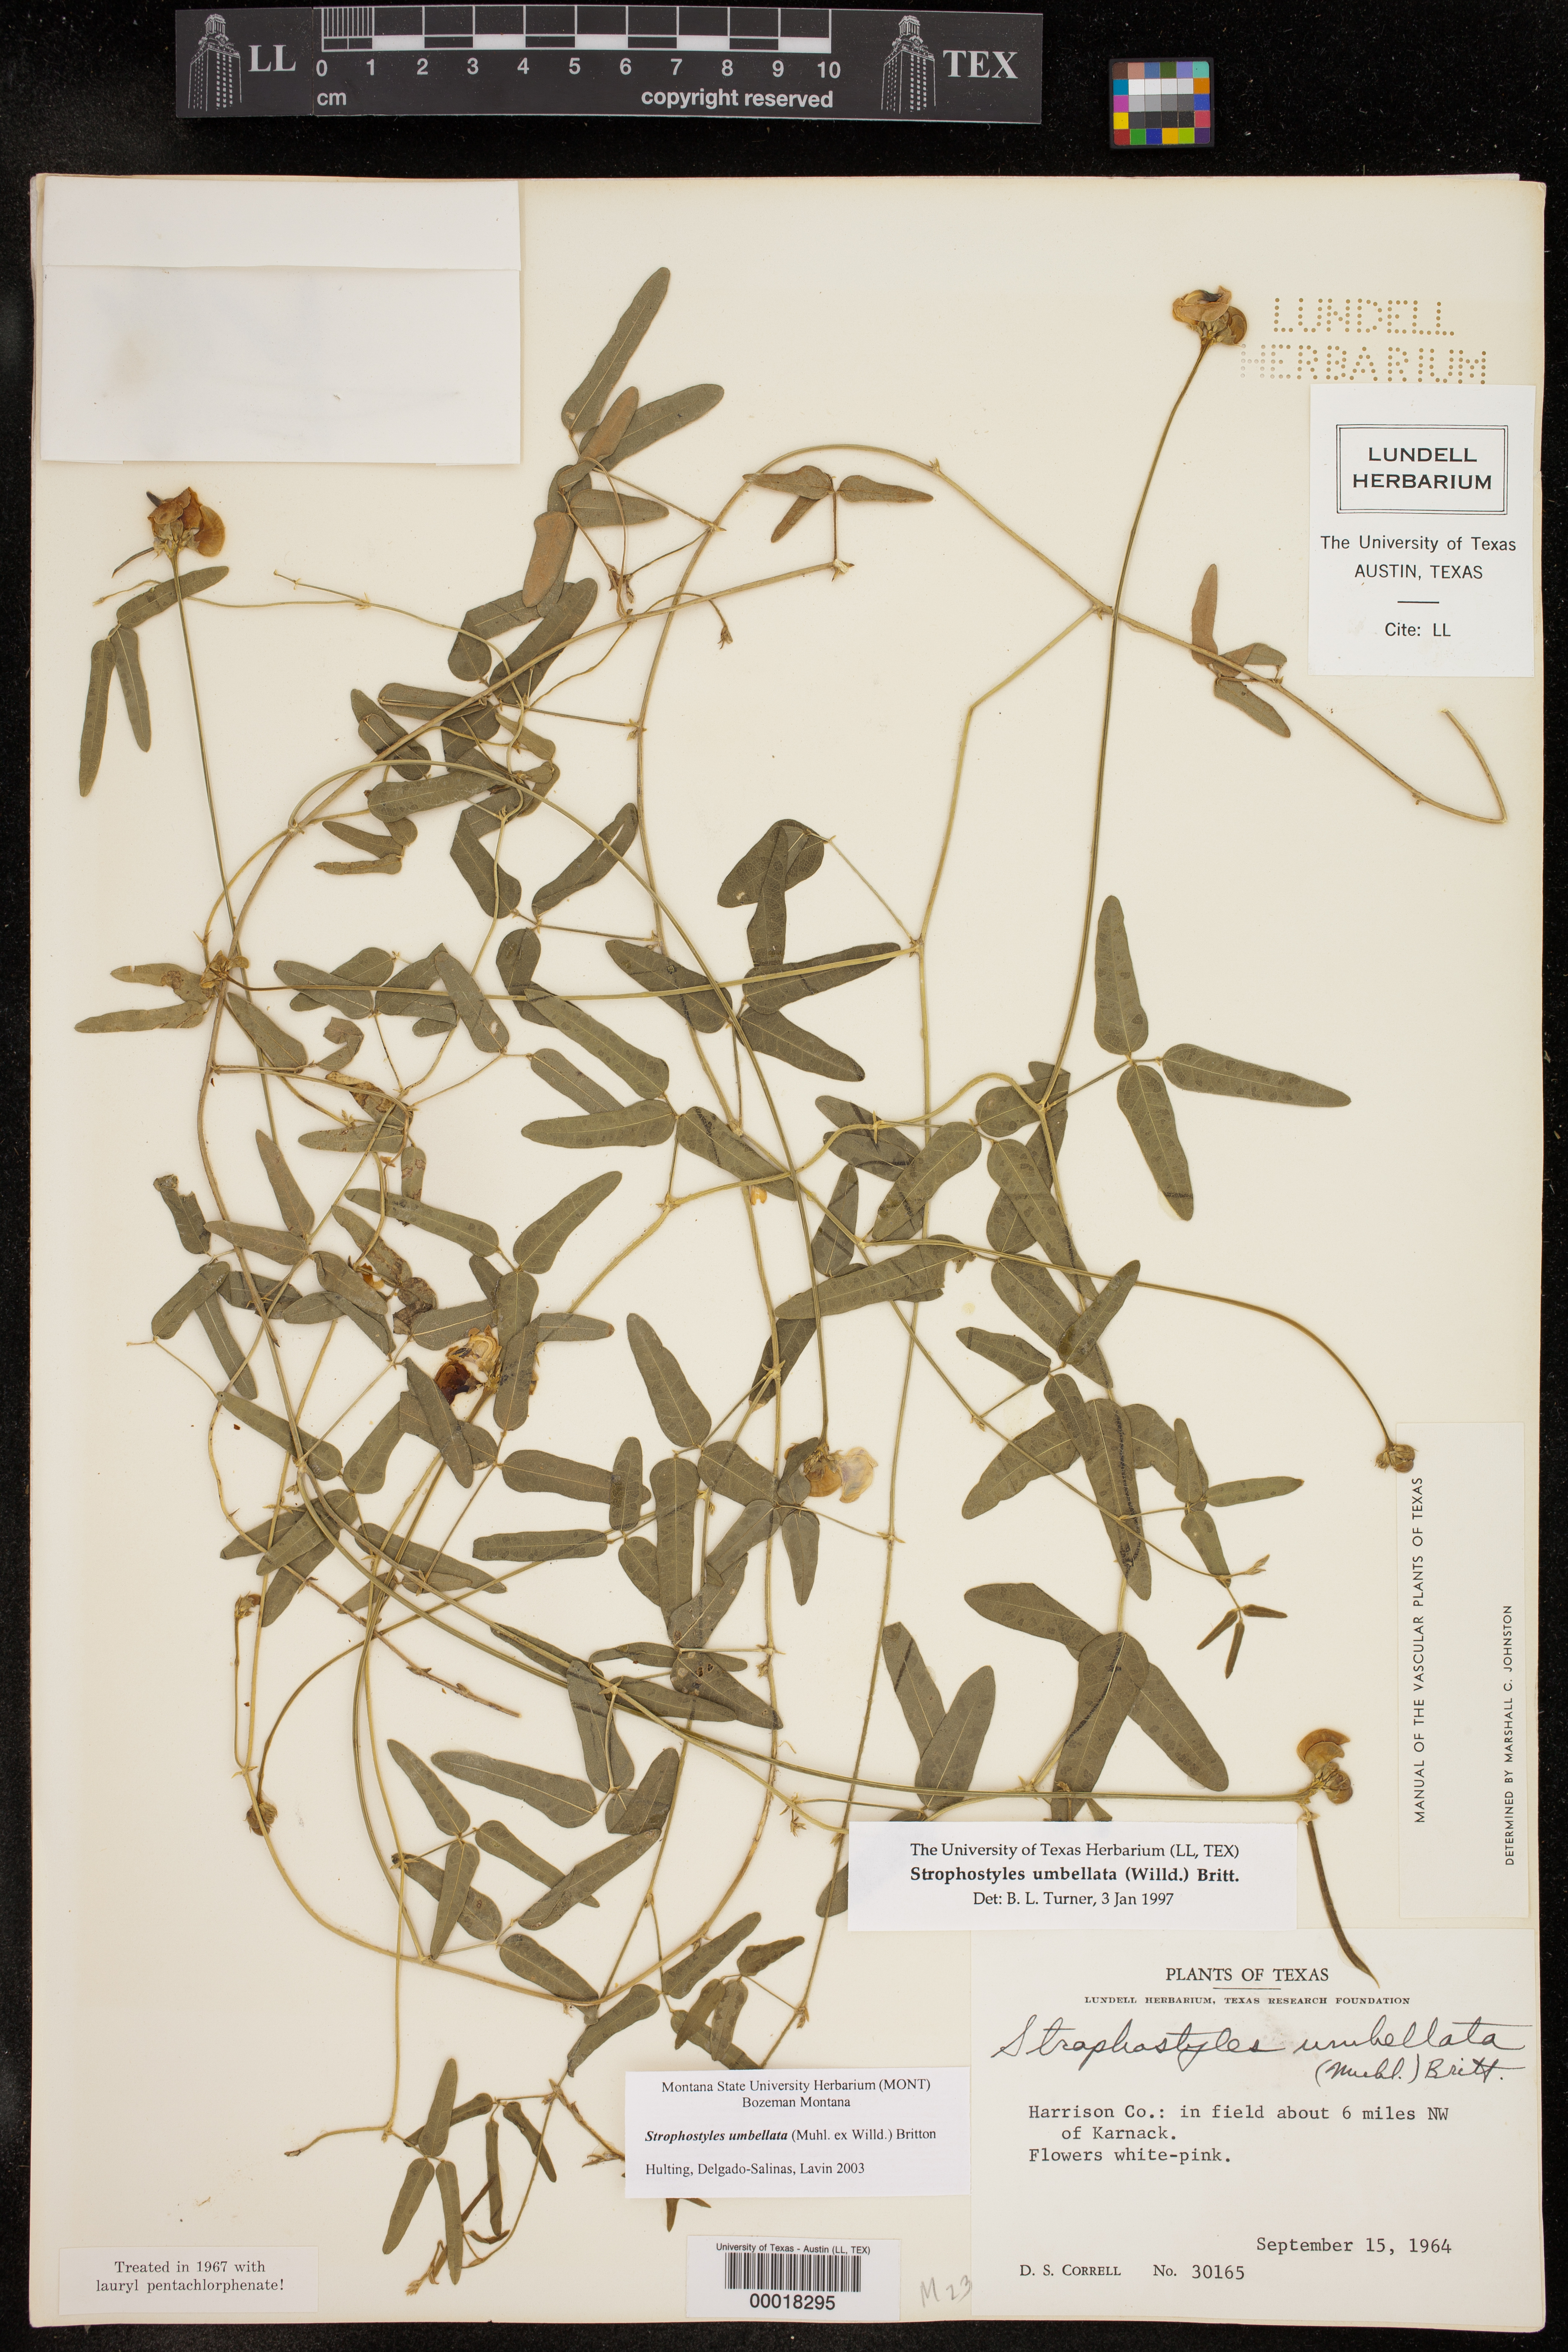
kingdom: Plantae
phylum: Tracheophyta
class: Magnoliopsida
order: Fabales
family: Fabaceae
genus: Strophostyles
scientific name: Strophostyles umbellata
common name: Perennial wild bean
